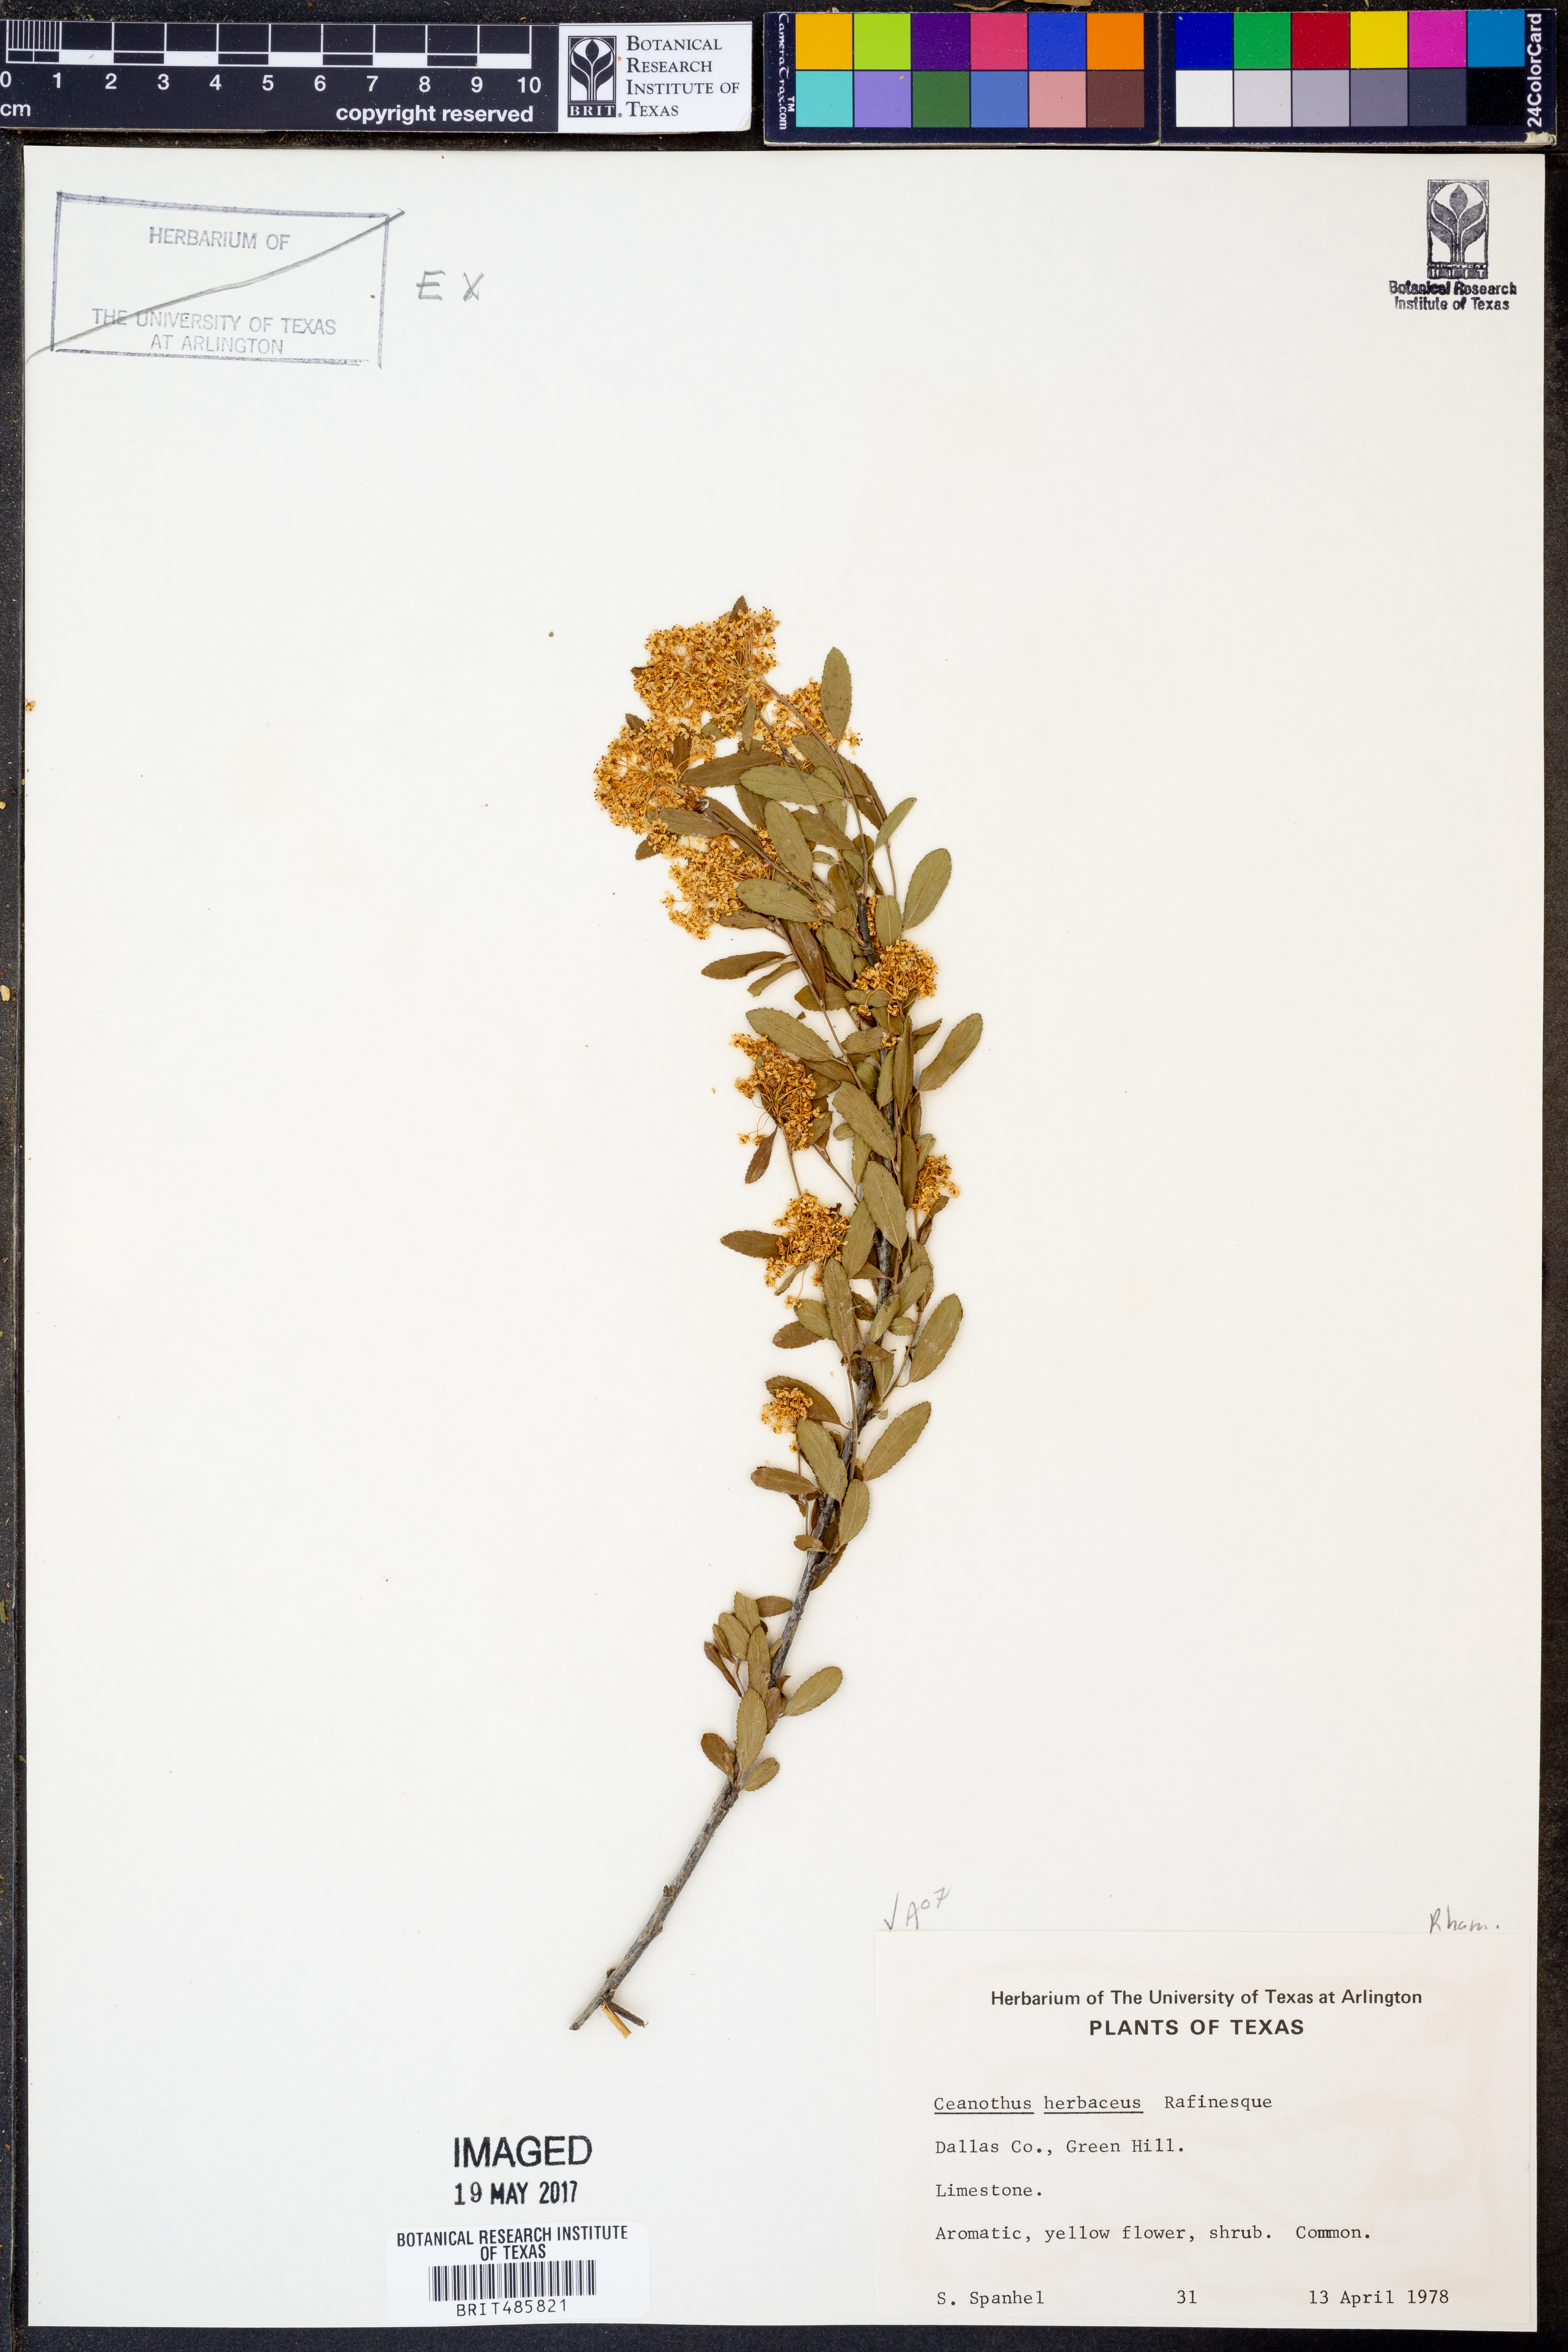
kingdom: Plantae
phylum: Tracheophyta
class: Magnoliopsida
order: Rosales
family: Rhamnaceae
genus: Ceanothus
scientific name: Ceanothus herbaceus
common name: Inland ceanothus
